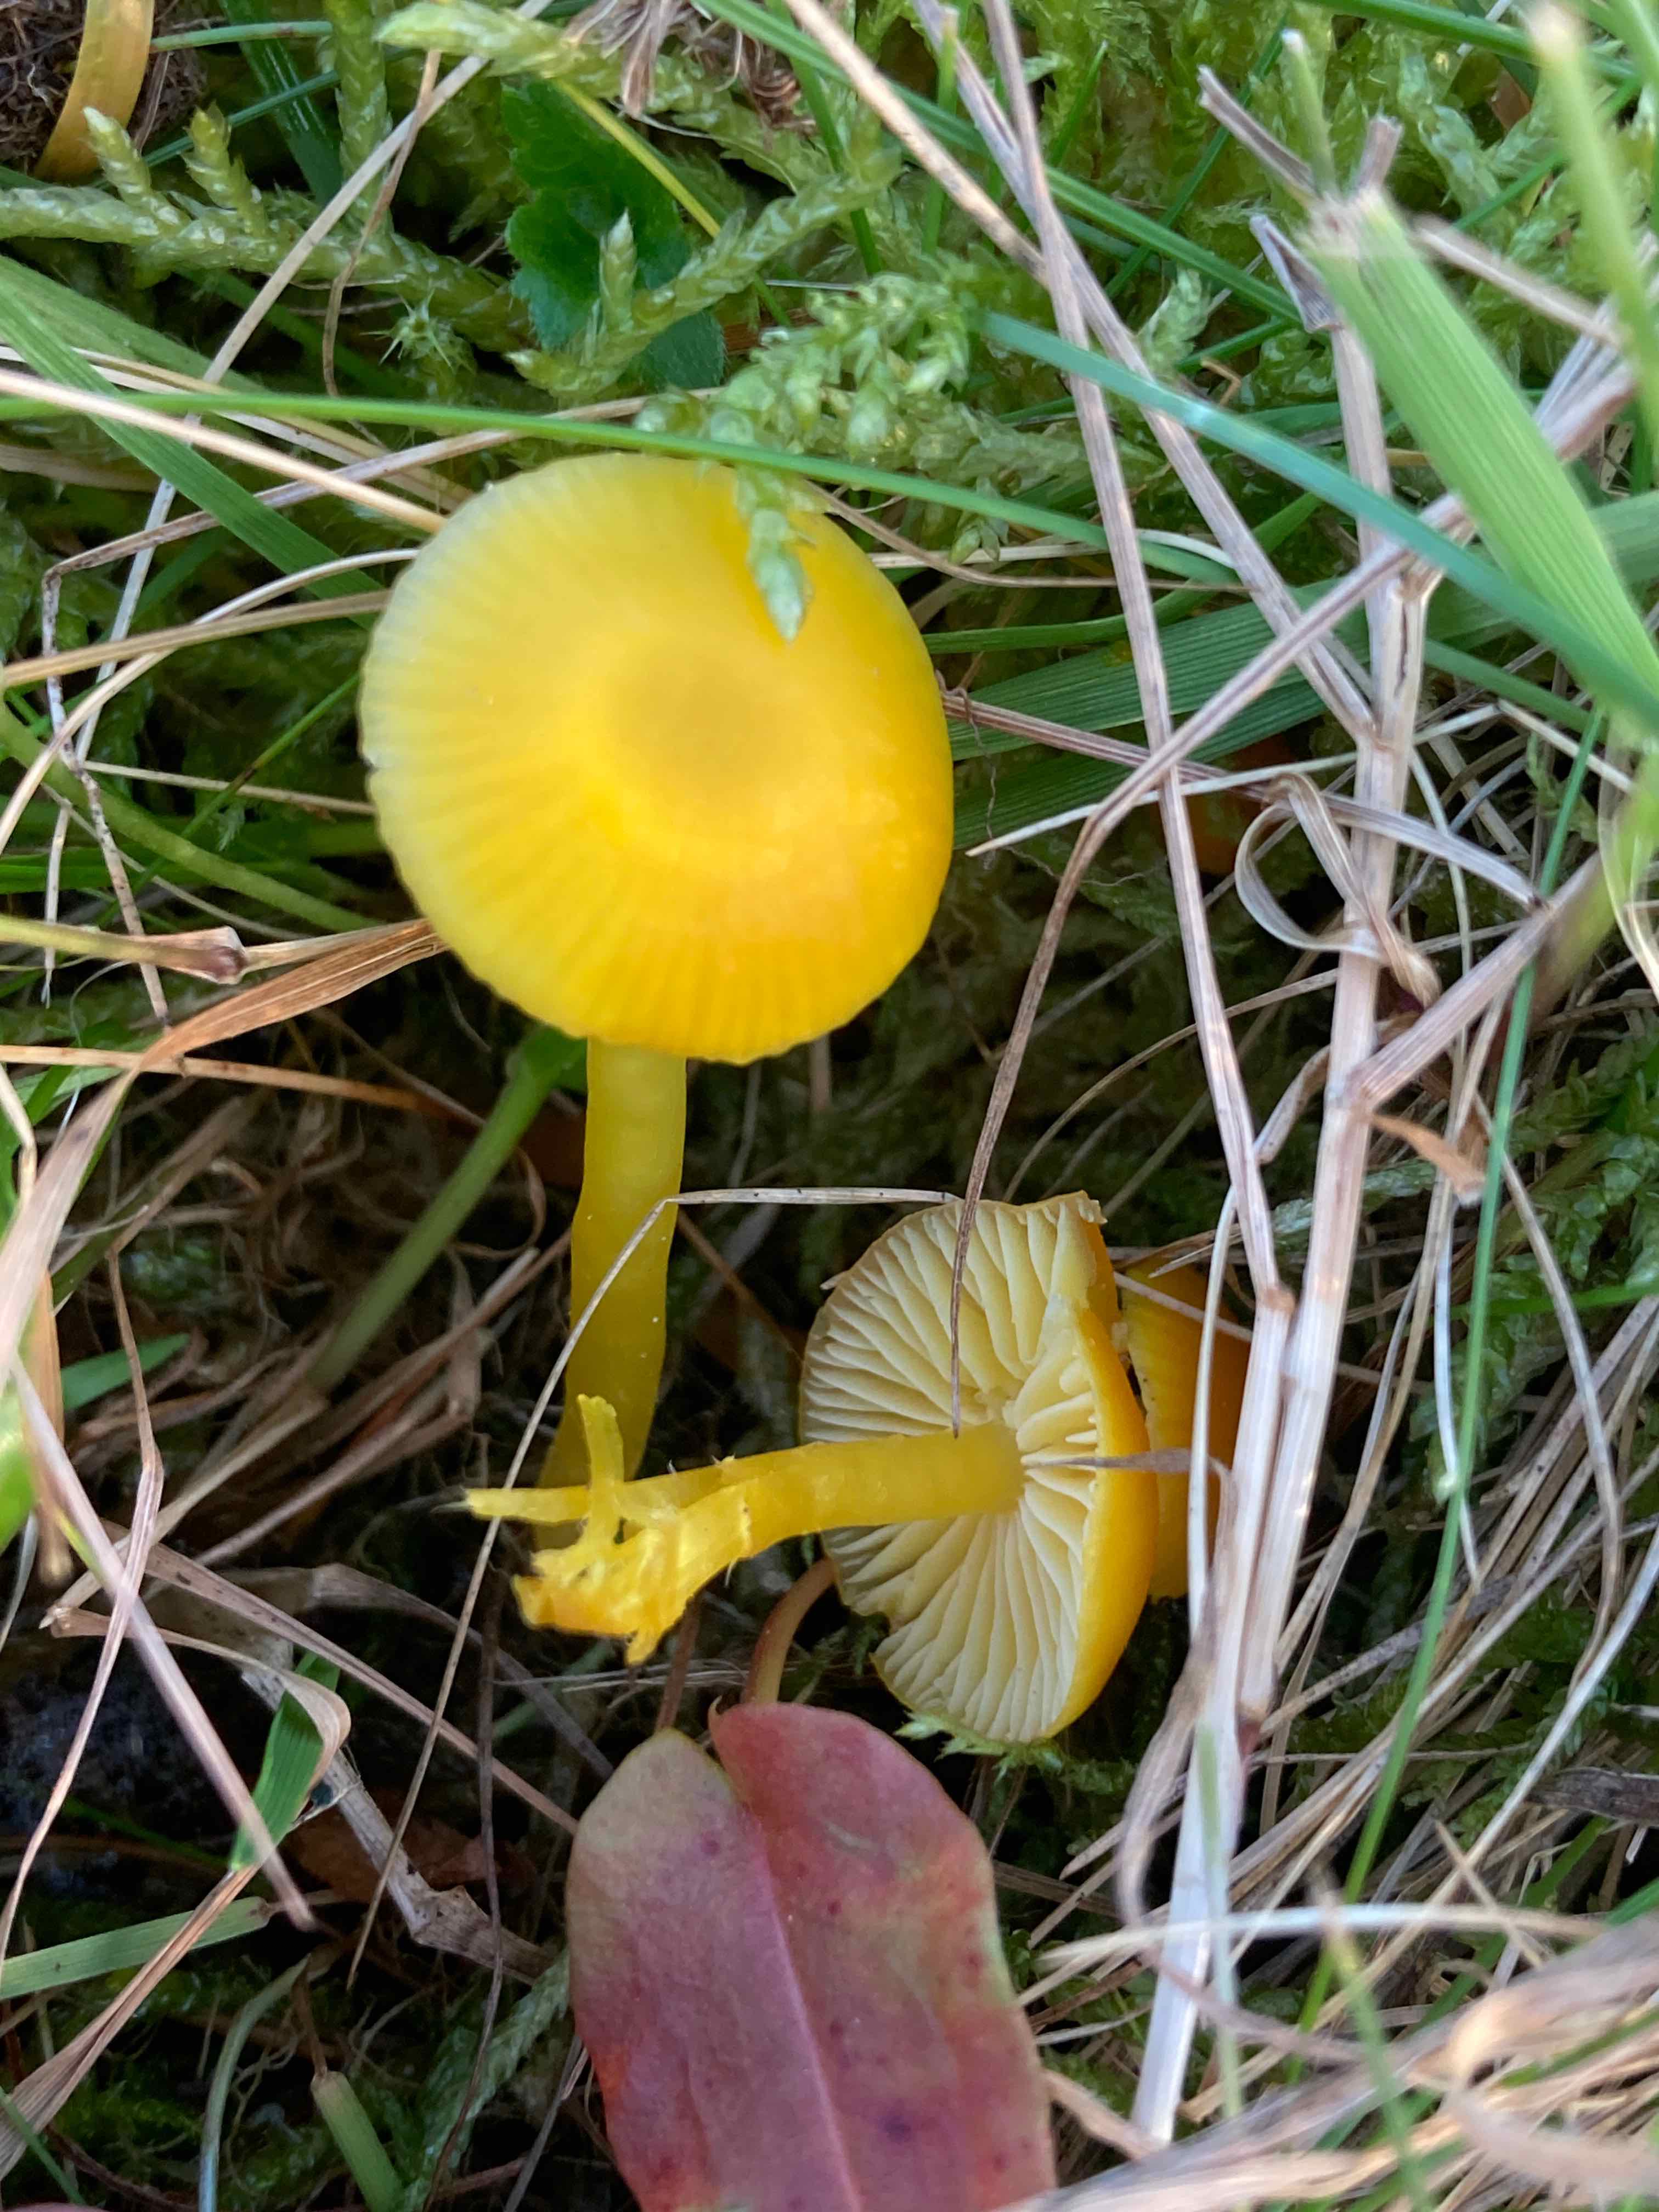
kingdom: Fungi
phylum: Basidiomycota
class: Agaricomycetes
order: Agaricales
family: Hygrophoraceae
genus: Hygrocybe
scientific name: Hygrocybe ceracea
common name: voksgul vokshat
